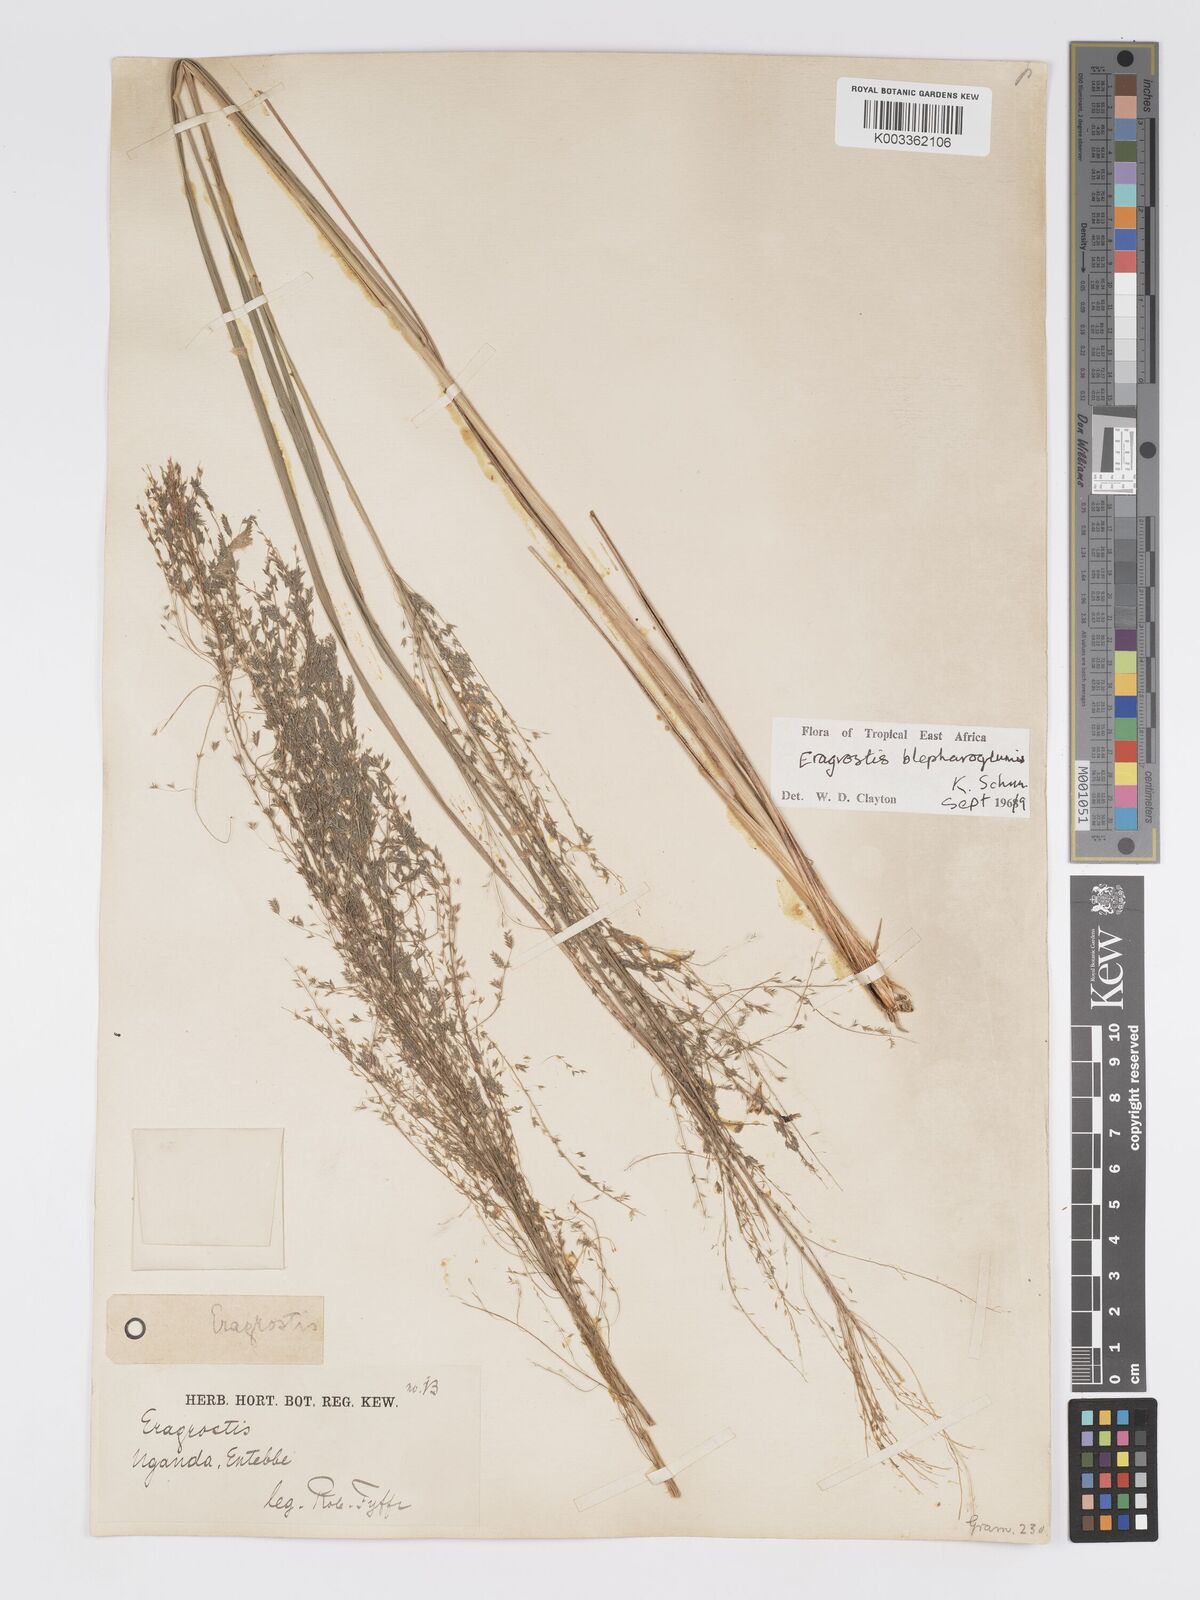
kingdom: Plantae
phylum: Tracheophyta
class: Liliopsida
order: Poales
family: Poaceae
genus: Eragrostis
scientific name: Eragrostis olivacea
